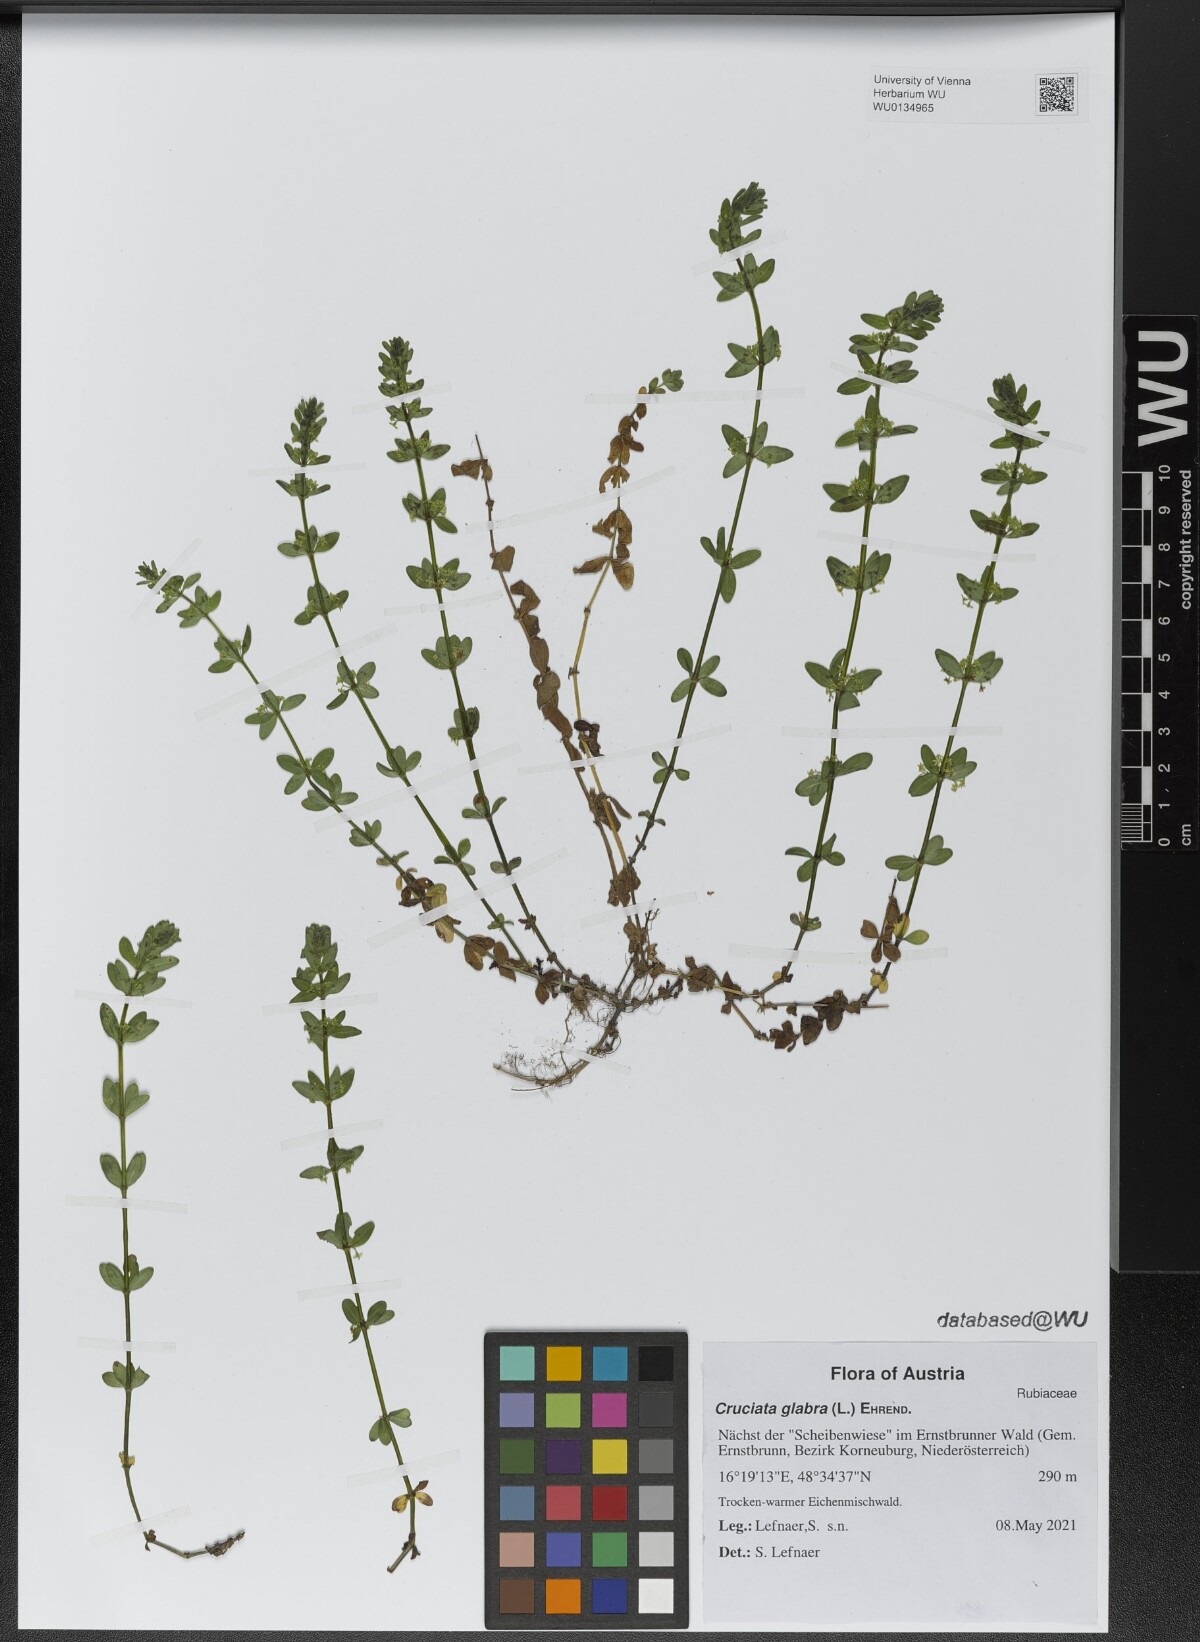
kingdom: Plantae
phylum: Tracheophyta
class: Magnoliopsida
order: Gentianales
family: Rubiaceae
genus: Cruciata
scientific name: Cruciata glabra
